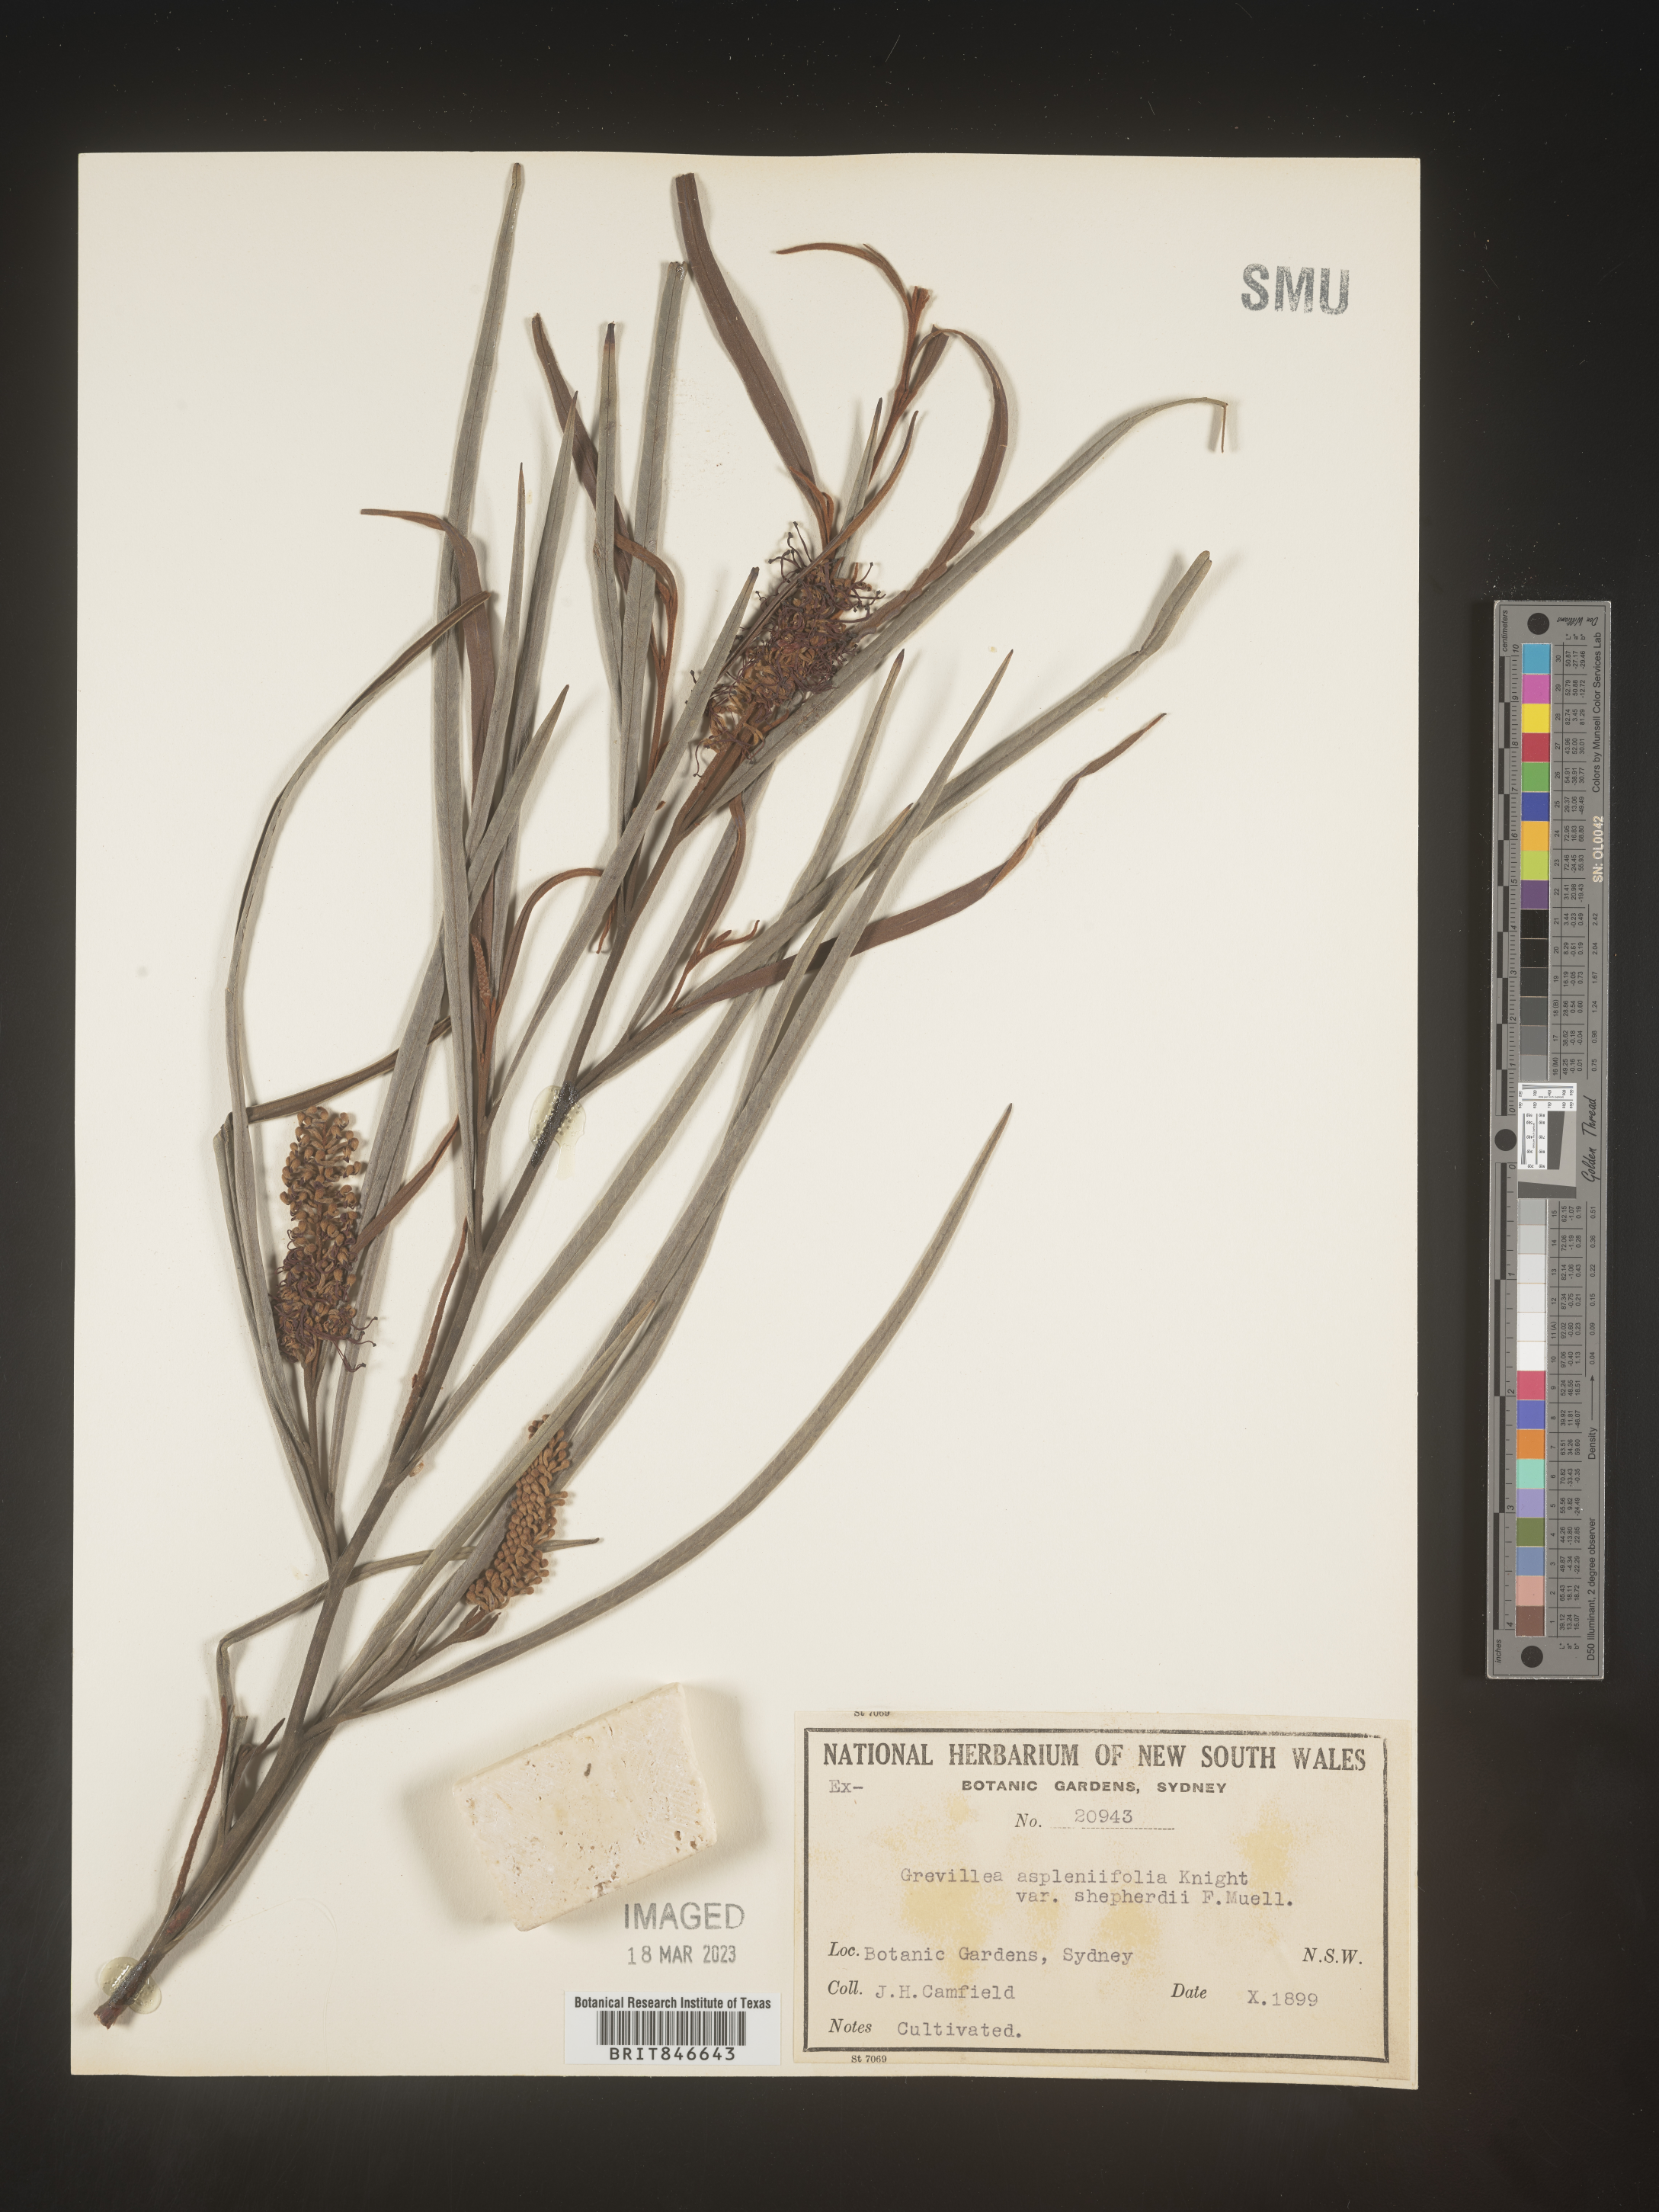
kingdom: Plantae
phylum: Tracheophyta
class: Magnoliopsida
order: Proteales
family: Proteaceae
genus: Grevillea
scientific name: Grevillea
